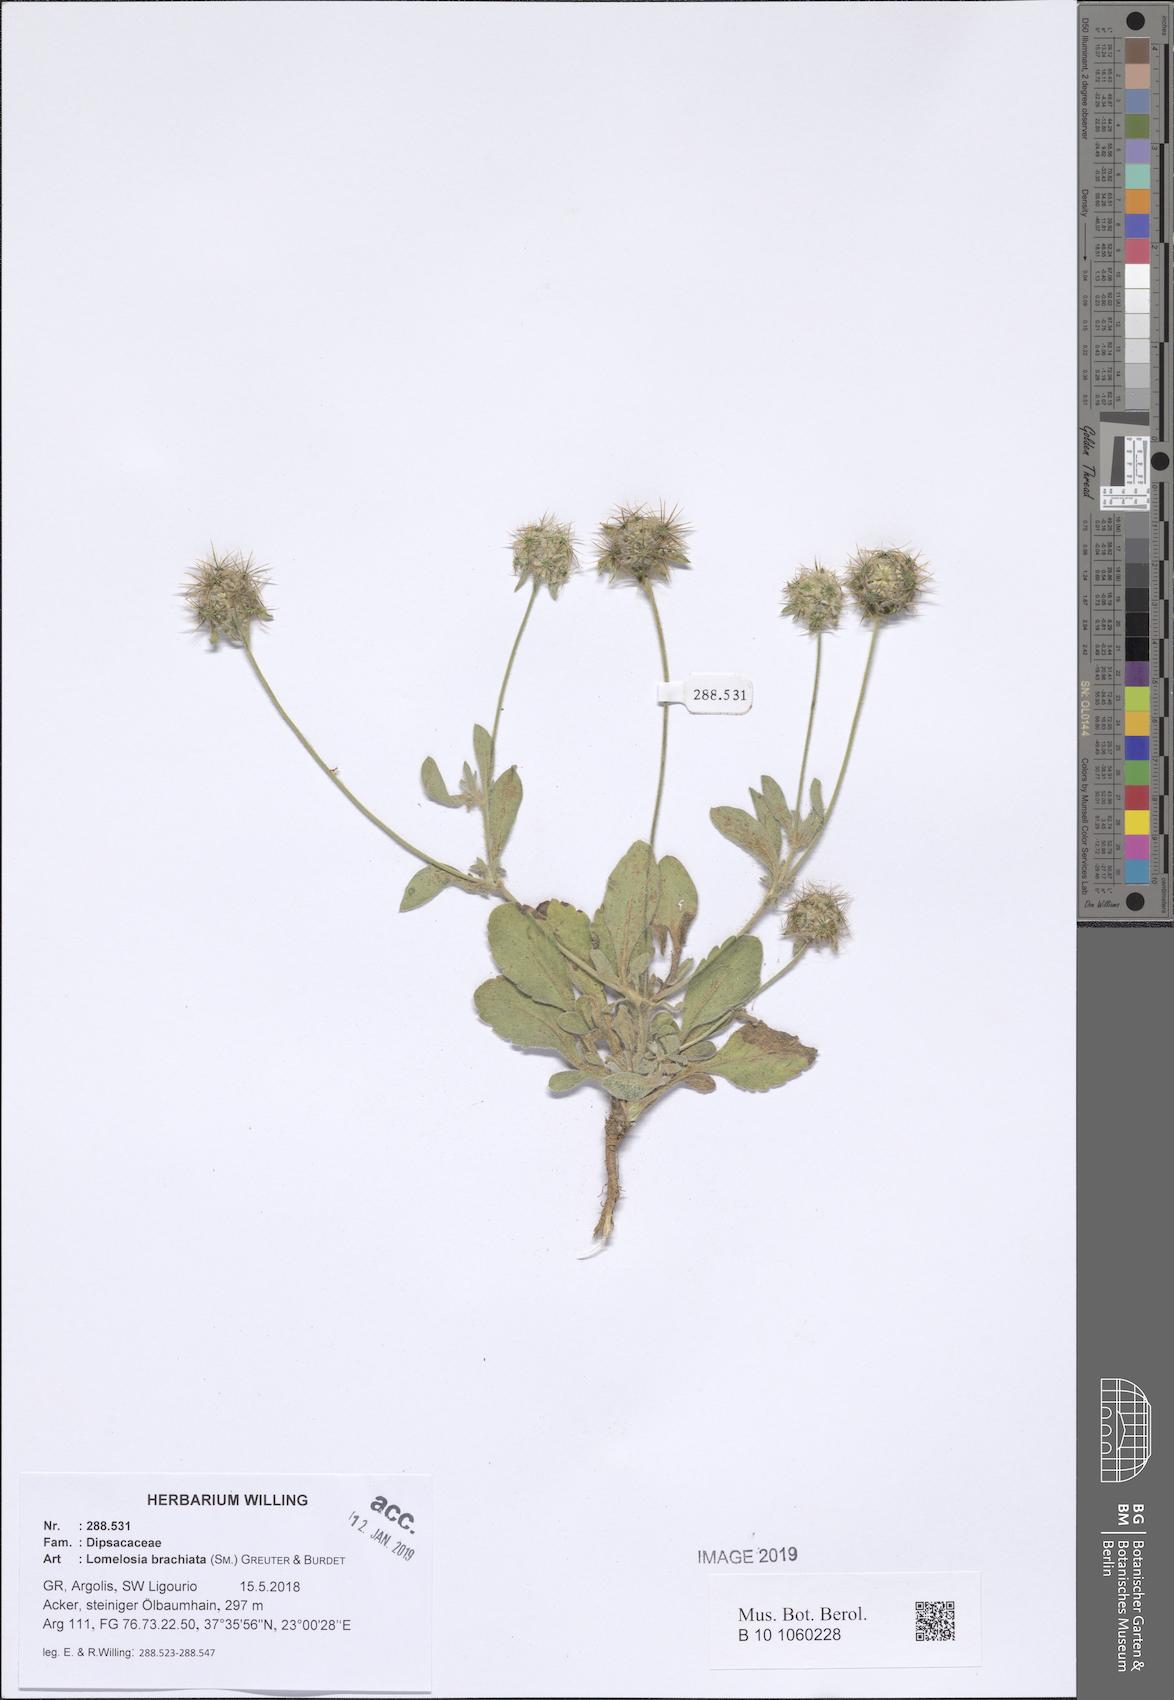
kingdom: Plantae
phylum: Tracheophyta
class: Magnoliopsida
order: Dipsacales
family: Caprifoliaceae
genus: Lomelosia
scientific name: Lomelosia brachiata
